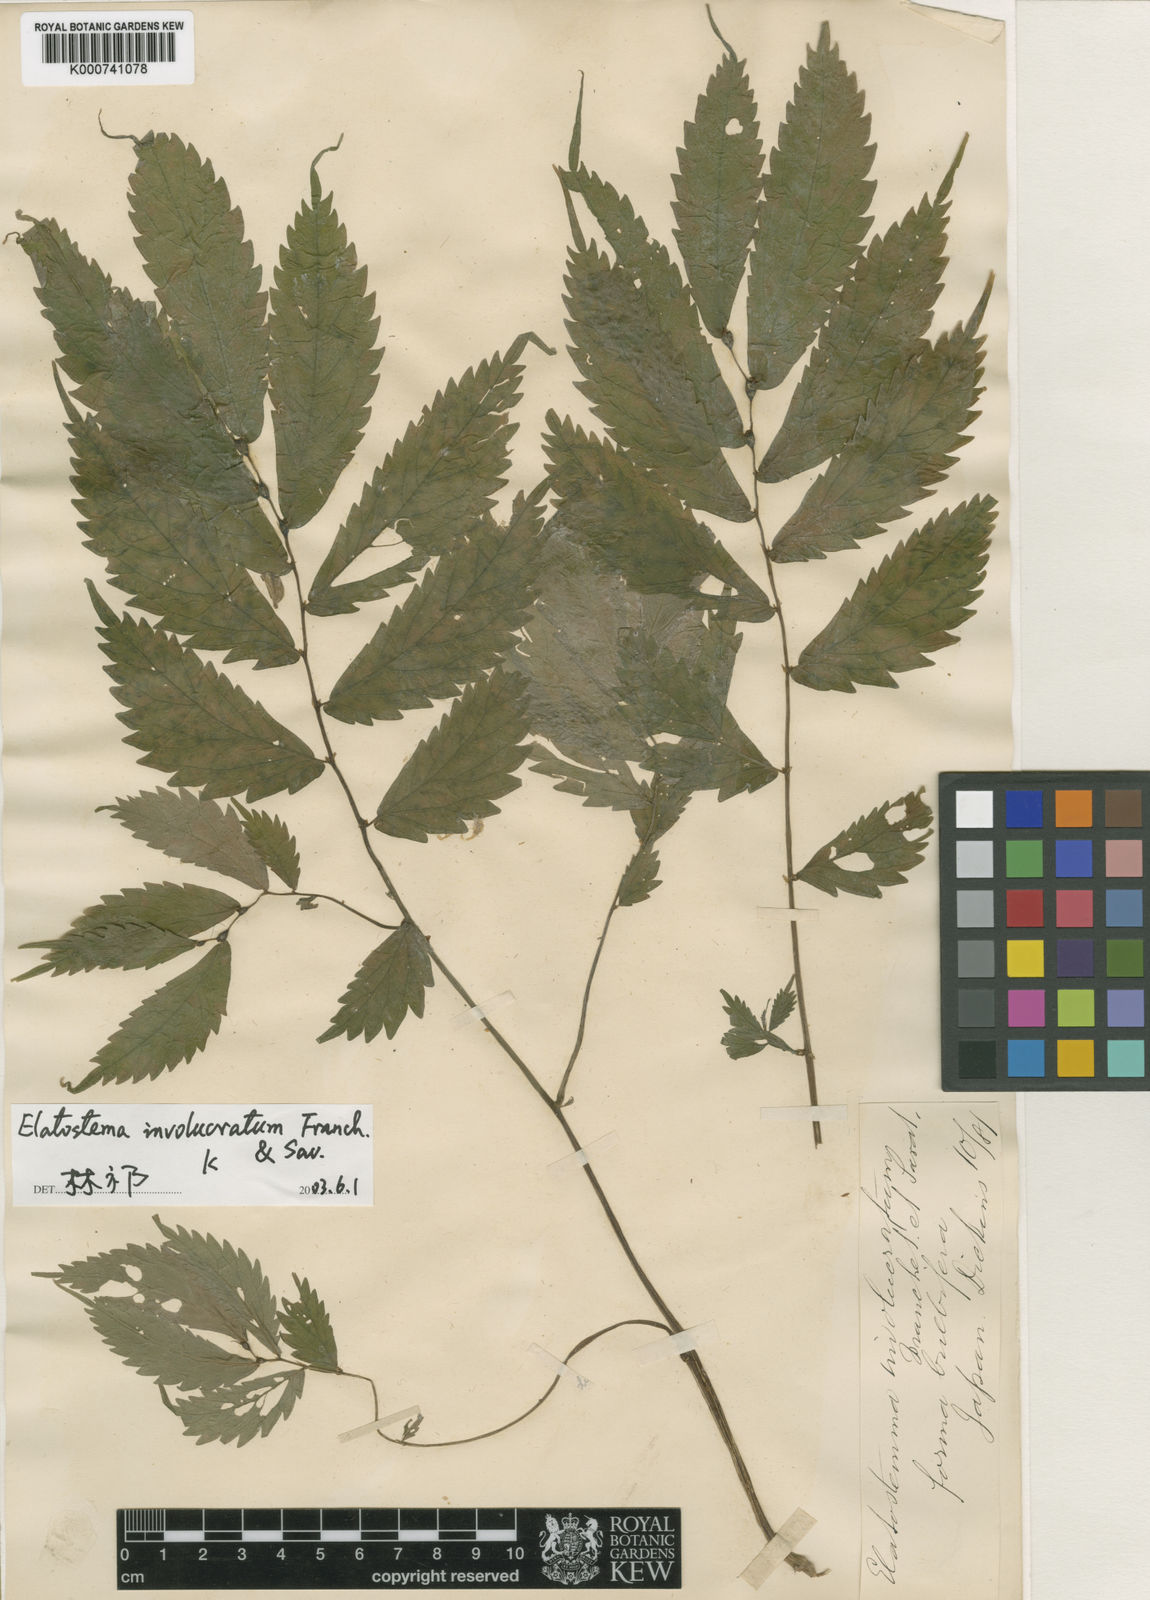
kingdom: Plantae
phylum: Tracheophyta
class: Magnoliopsida
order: Rosales
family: Urticaceae
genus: Elatostema
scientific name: Elatostema involucratum
